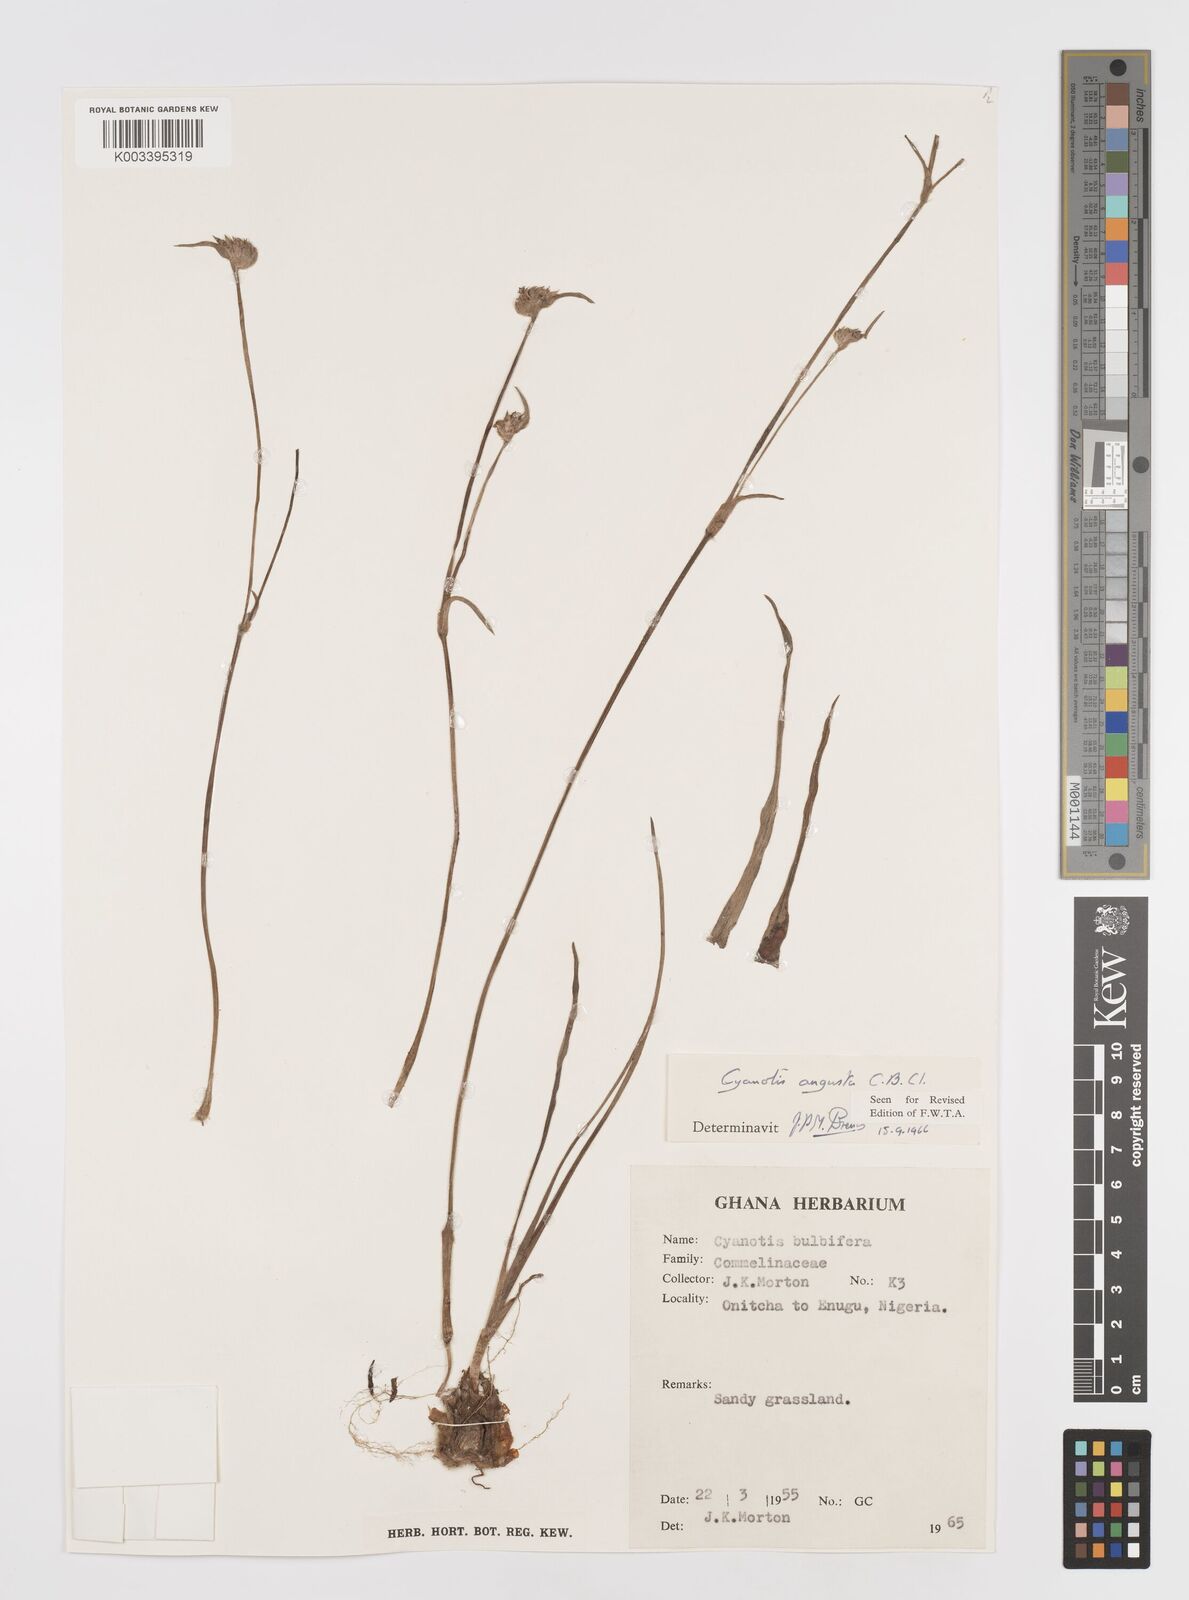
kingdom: Plantae
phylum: Tracheophyta
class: Liliopsida
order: Commelinales
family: Commelinaceae
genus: Cyanotis
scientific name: Cyanotis angusta
